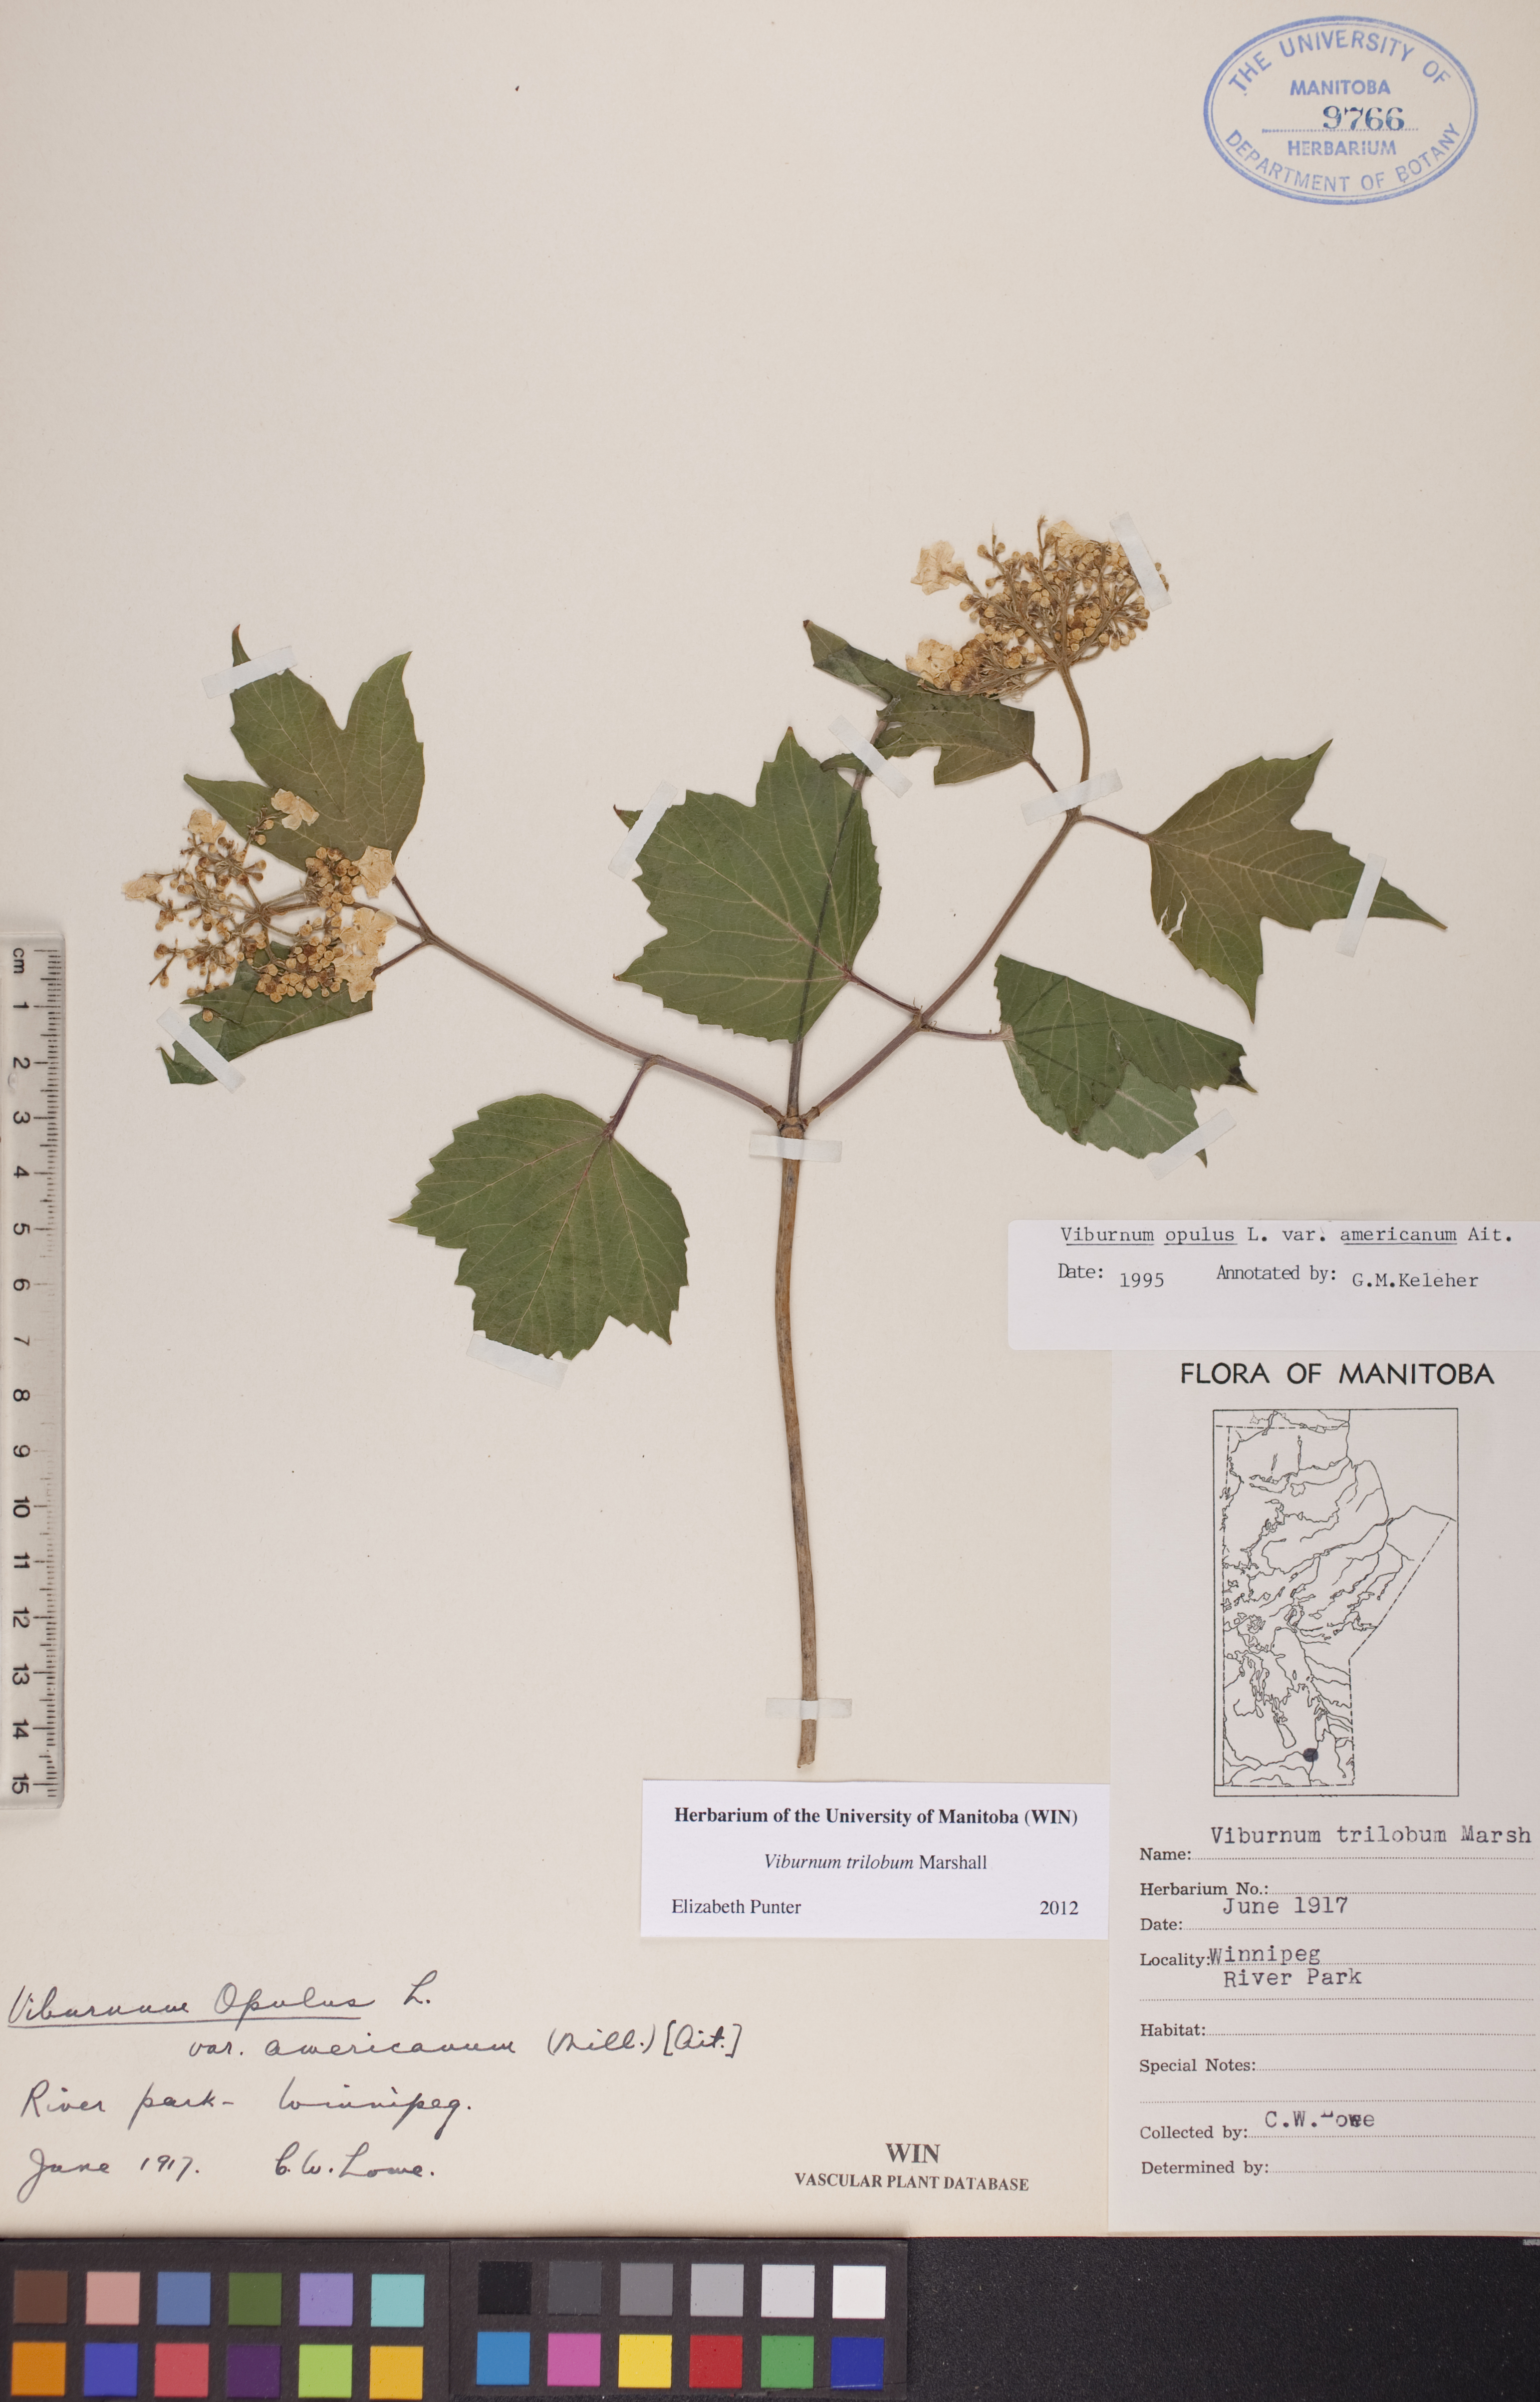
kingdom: Plantae
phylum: Tracheophyta
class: Magnoliopsida
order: Dipsacales
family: Viburnaceae
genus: Viburnum
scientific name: Viburnum trilobum
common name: American cranberrybush
